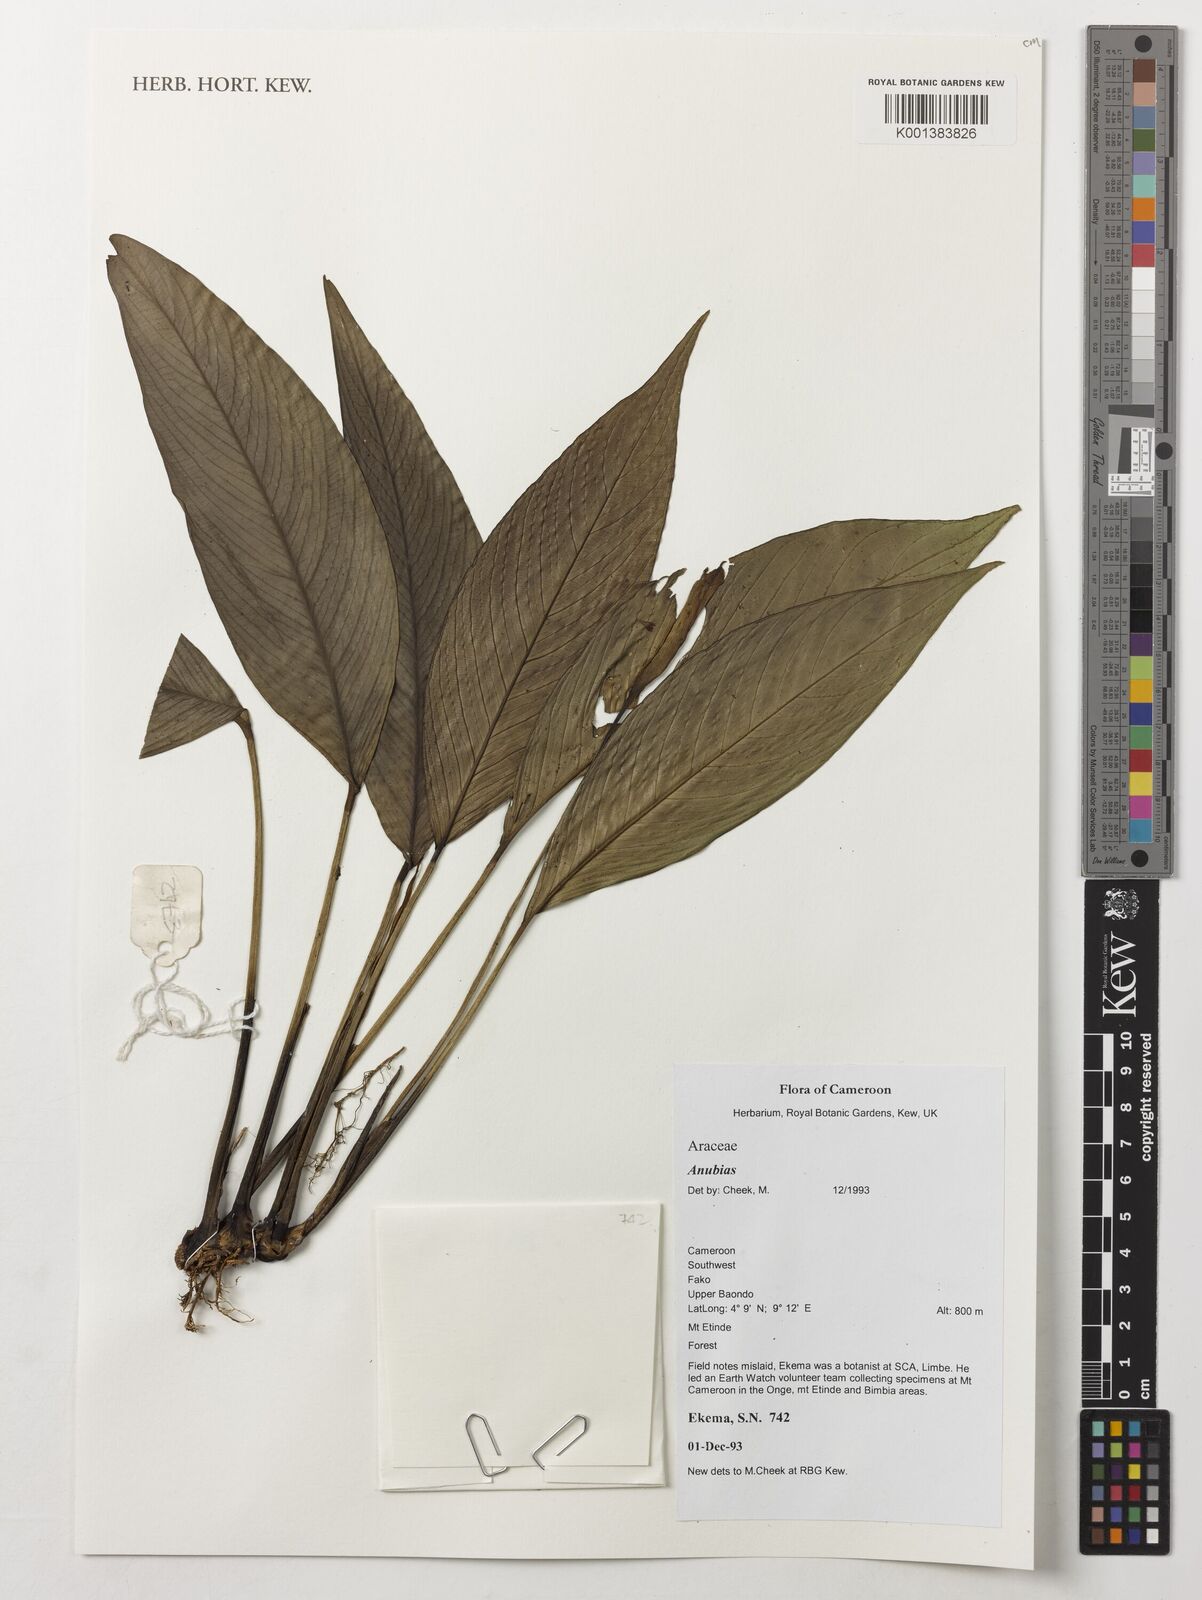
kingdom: Plantae
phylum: Tracheophyta
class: Liliopsida
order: Alismatales
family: Araceae
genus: Anubias
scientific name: Anubias
